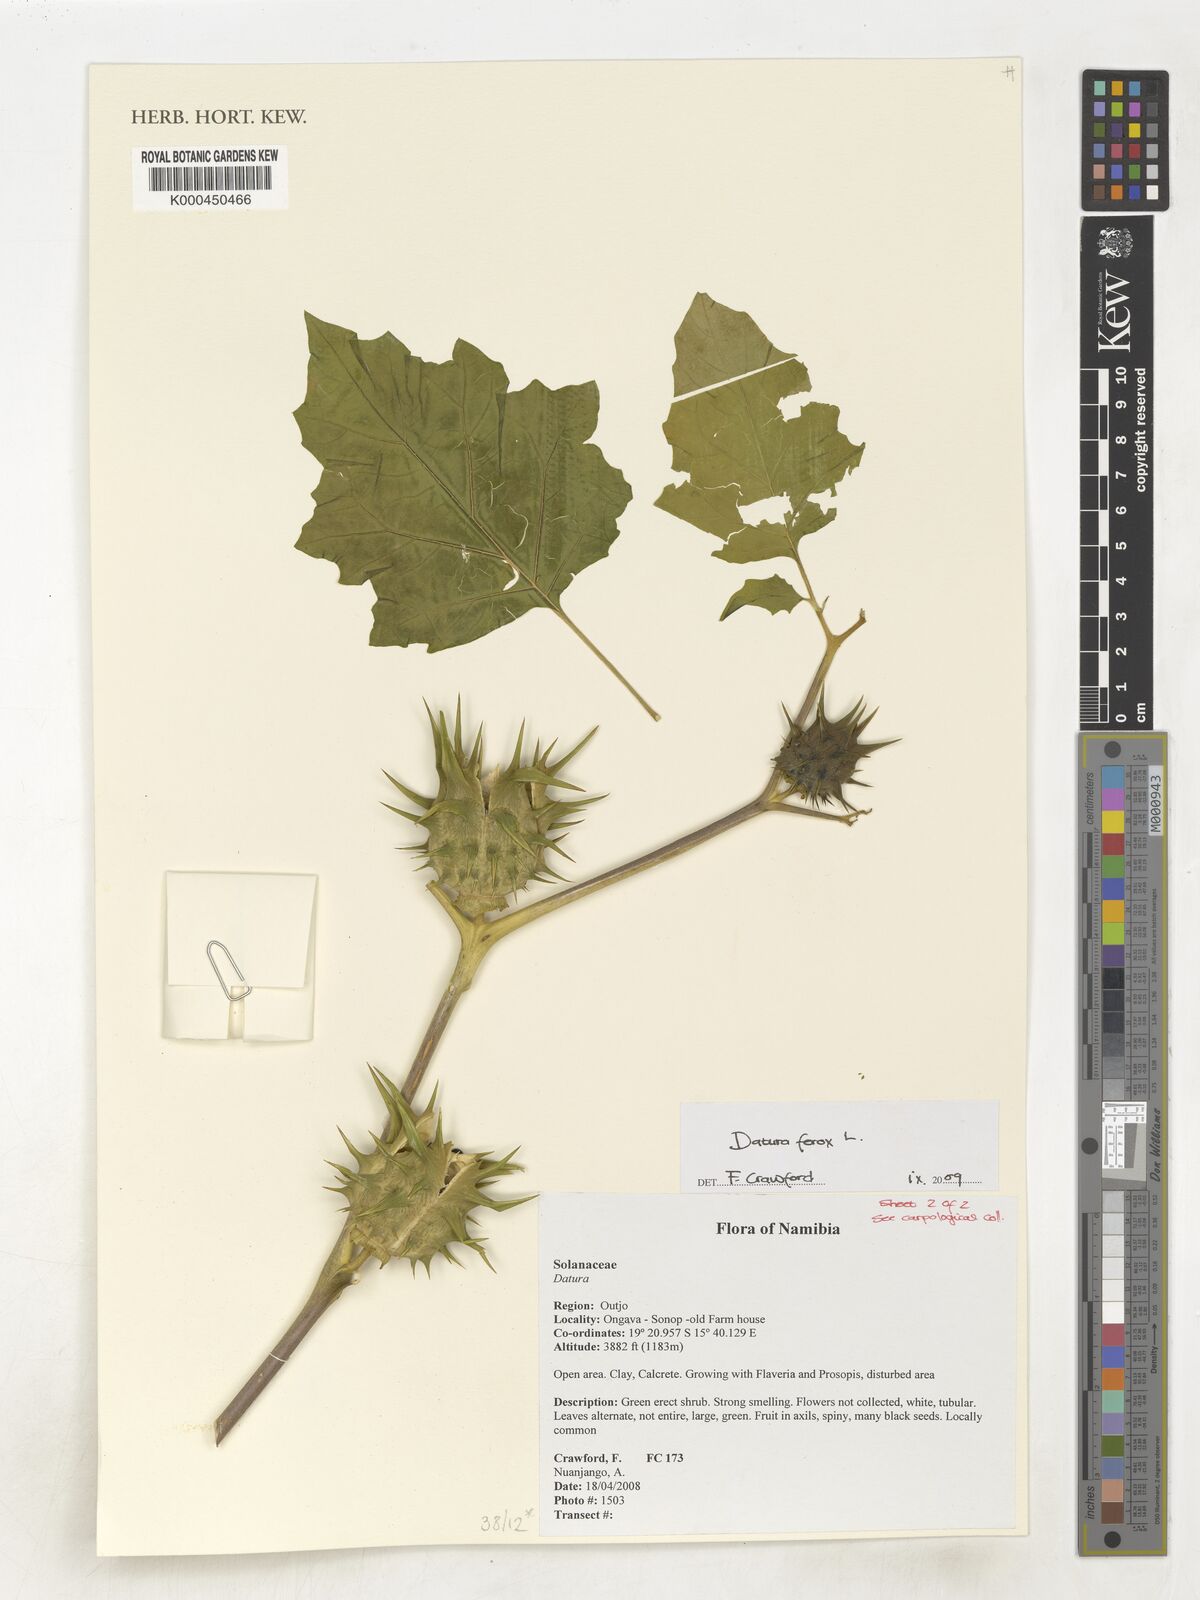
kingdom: Plantae
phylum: Tracheophyta
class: Magnoliopsida
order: Solanales
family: Solanaceae
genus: Datura
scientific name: Datura ferox
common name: Angel's-trumpets
